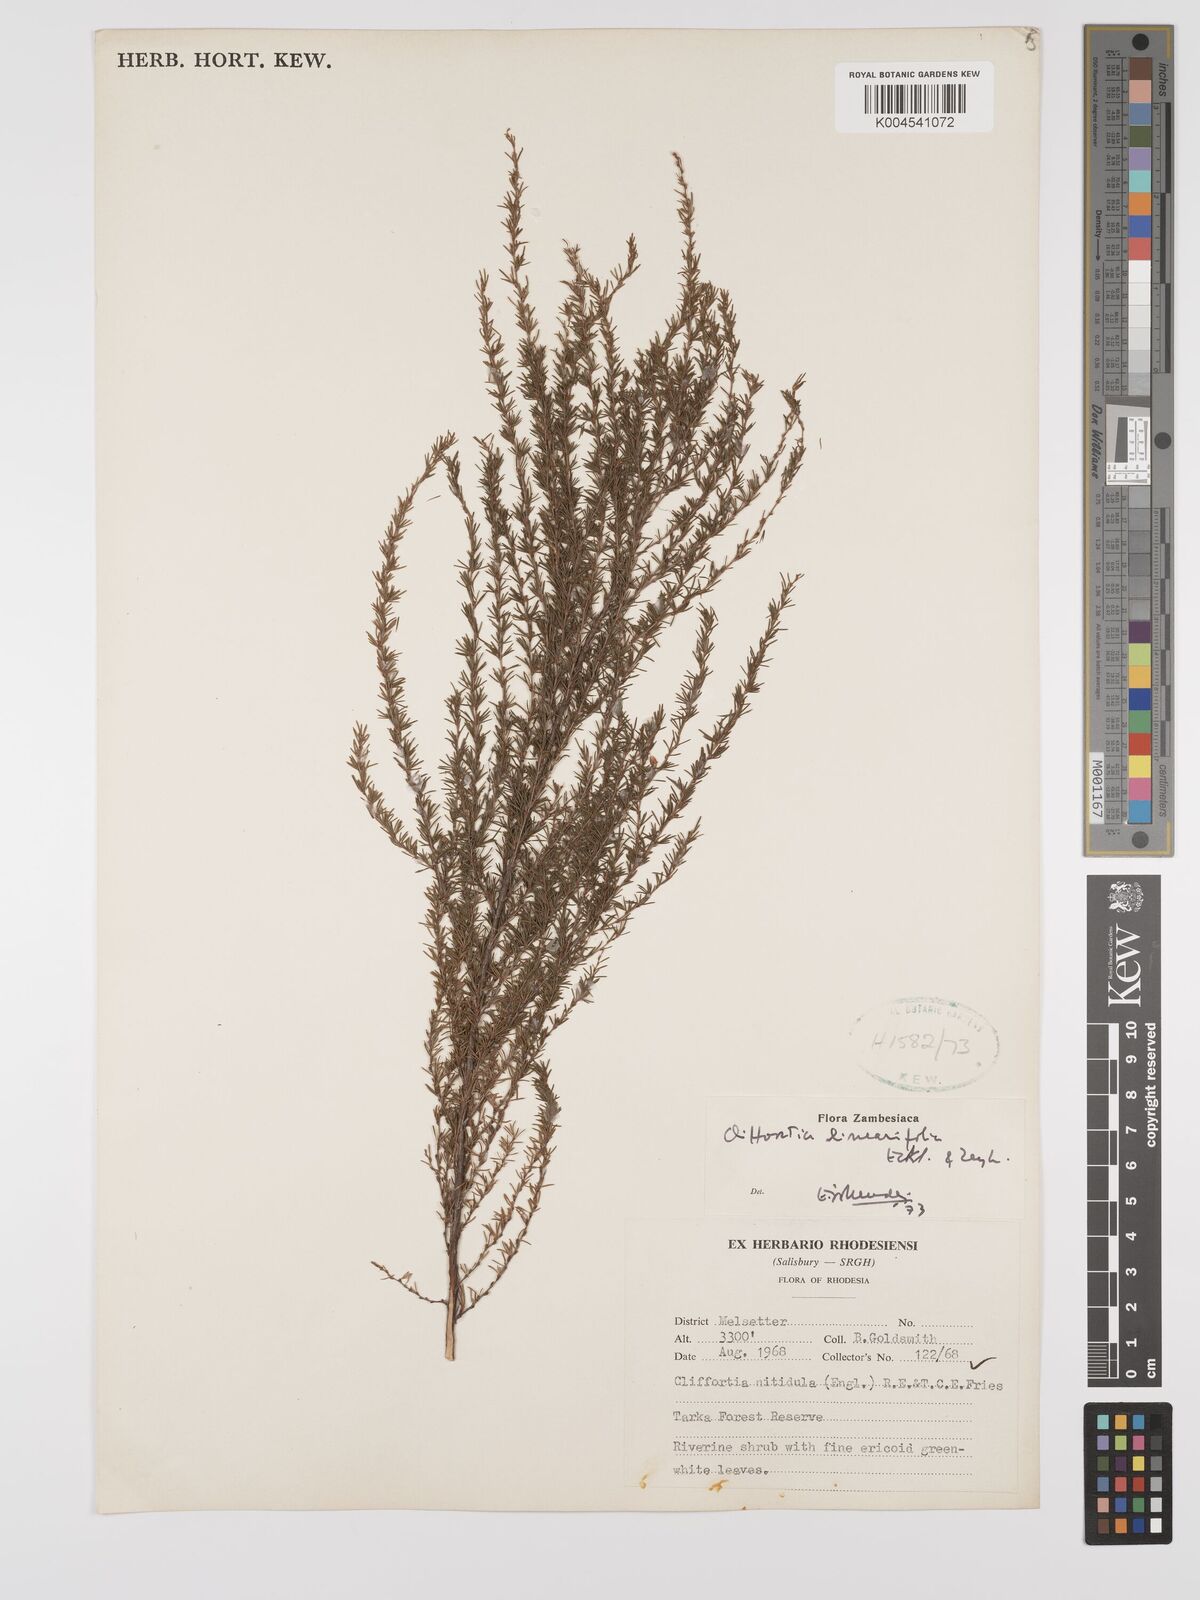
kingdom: Plantae
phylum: Tracheophyta
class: Magnoliopsida
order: Rosales
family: Rosaceae
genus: Cliffortia
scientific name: Cliffortia
